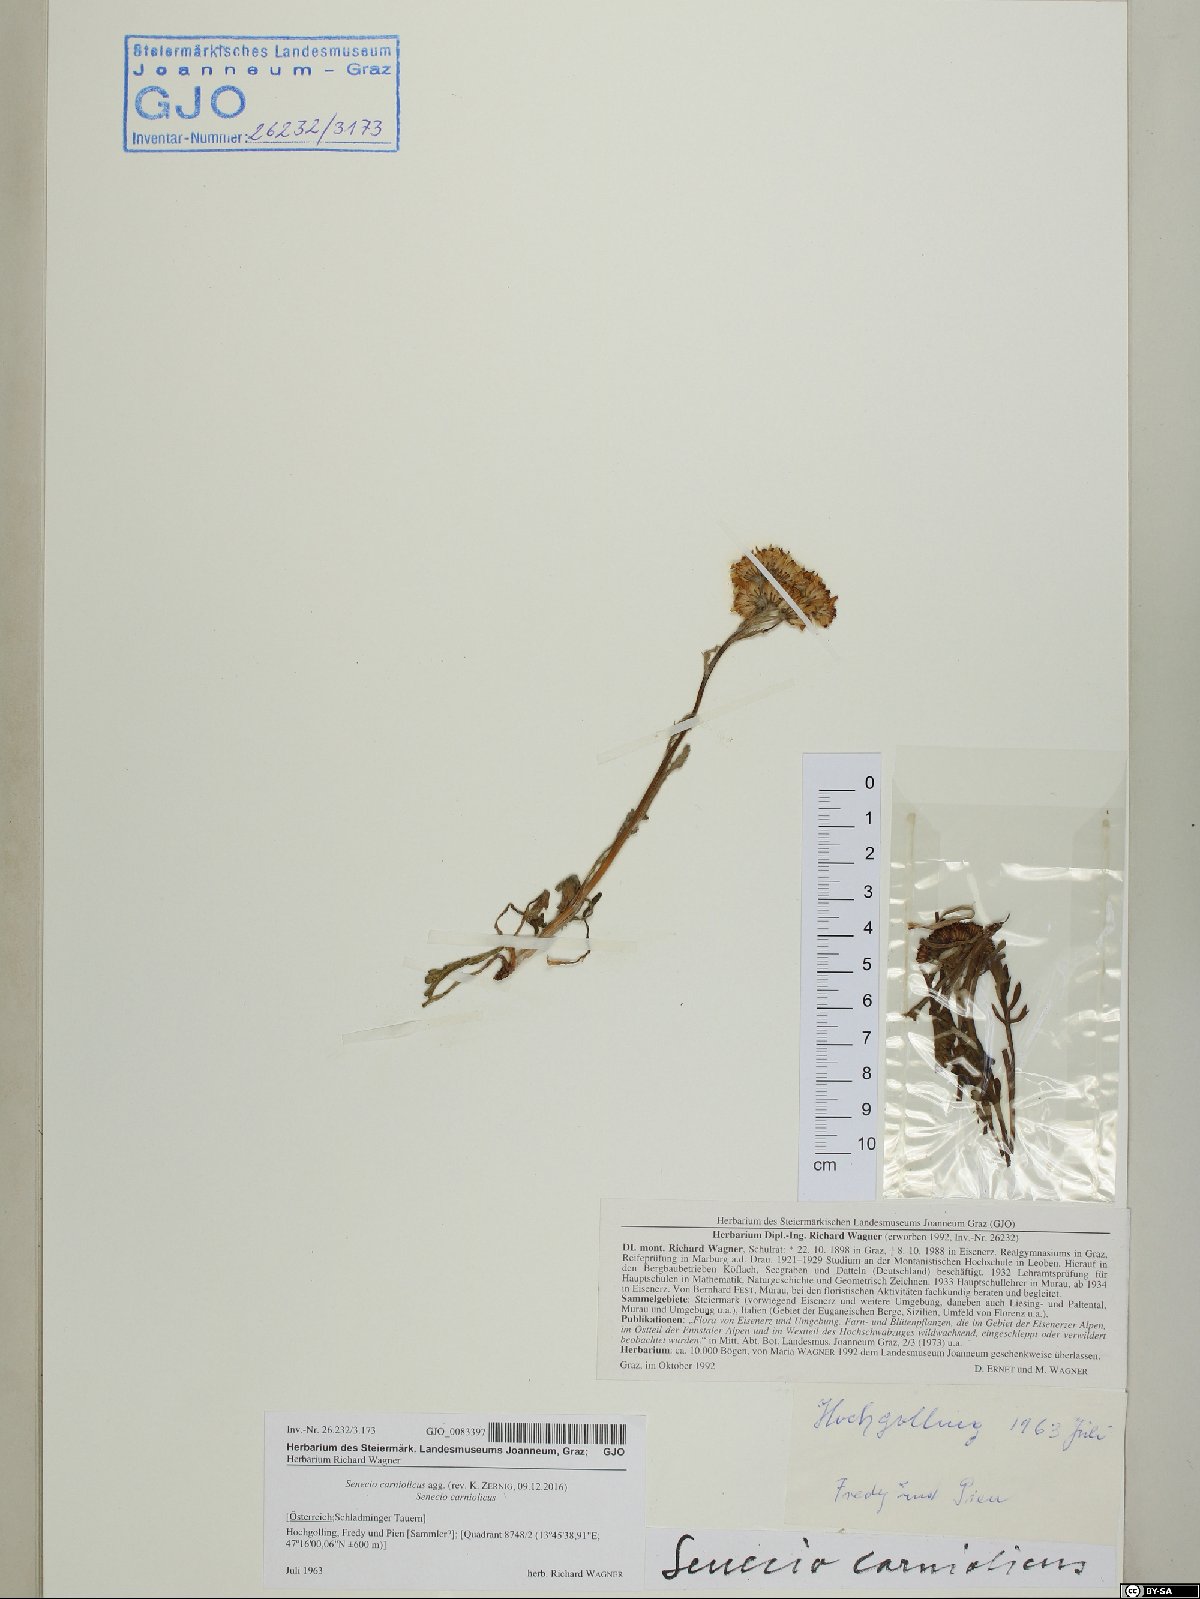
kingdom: Plantae
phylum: Tracheophyta
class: Magnoliopsida
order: Asterales
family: Asteraceae
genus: Jacobaea
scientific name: Jacobaea carniolica
